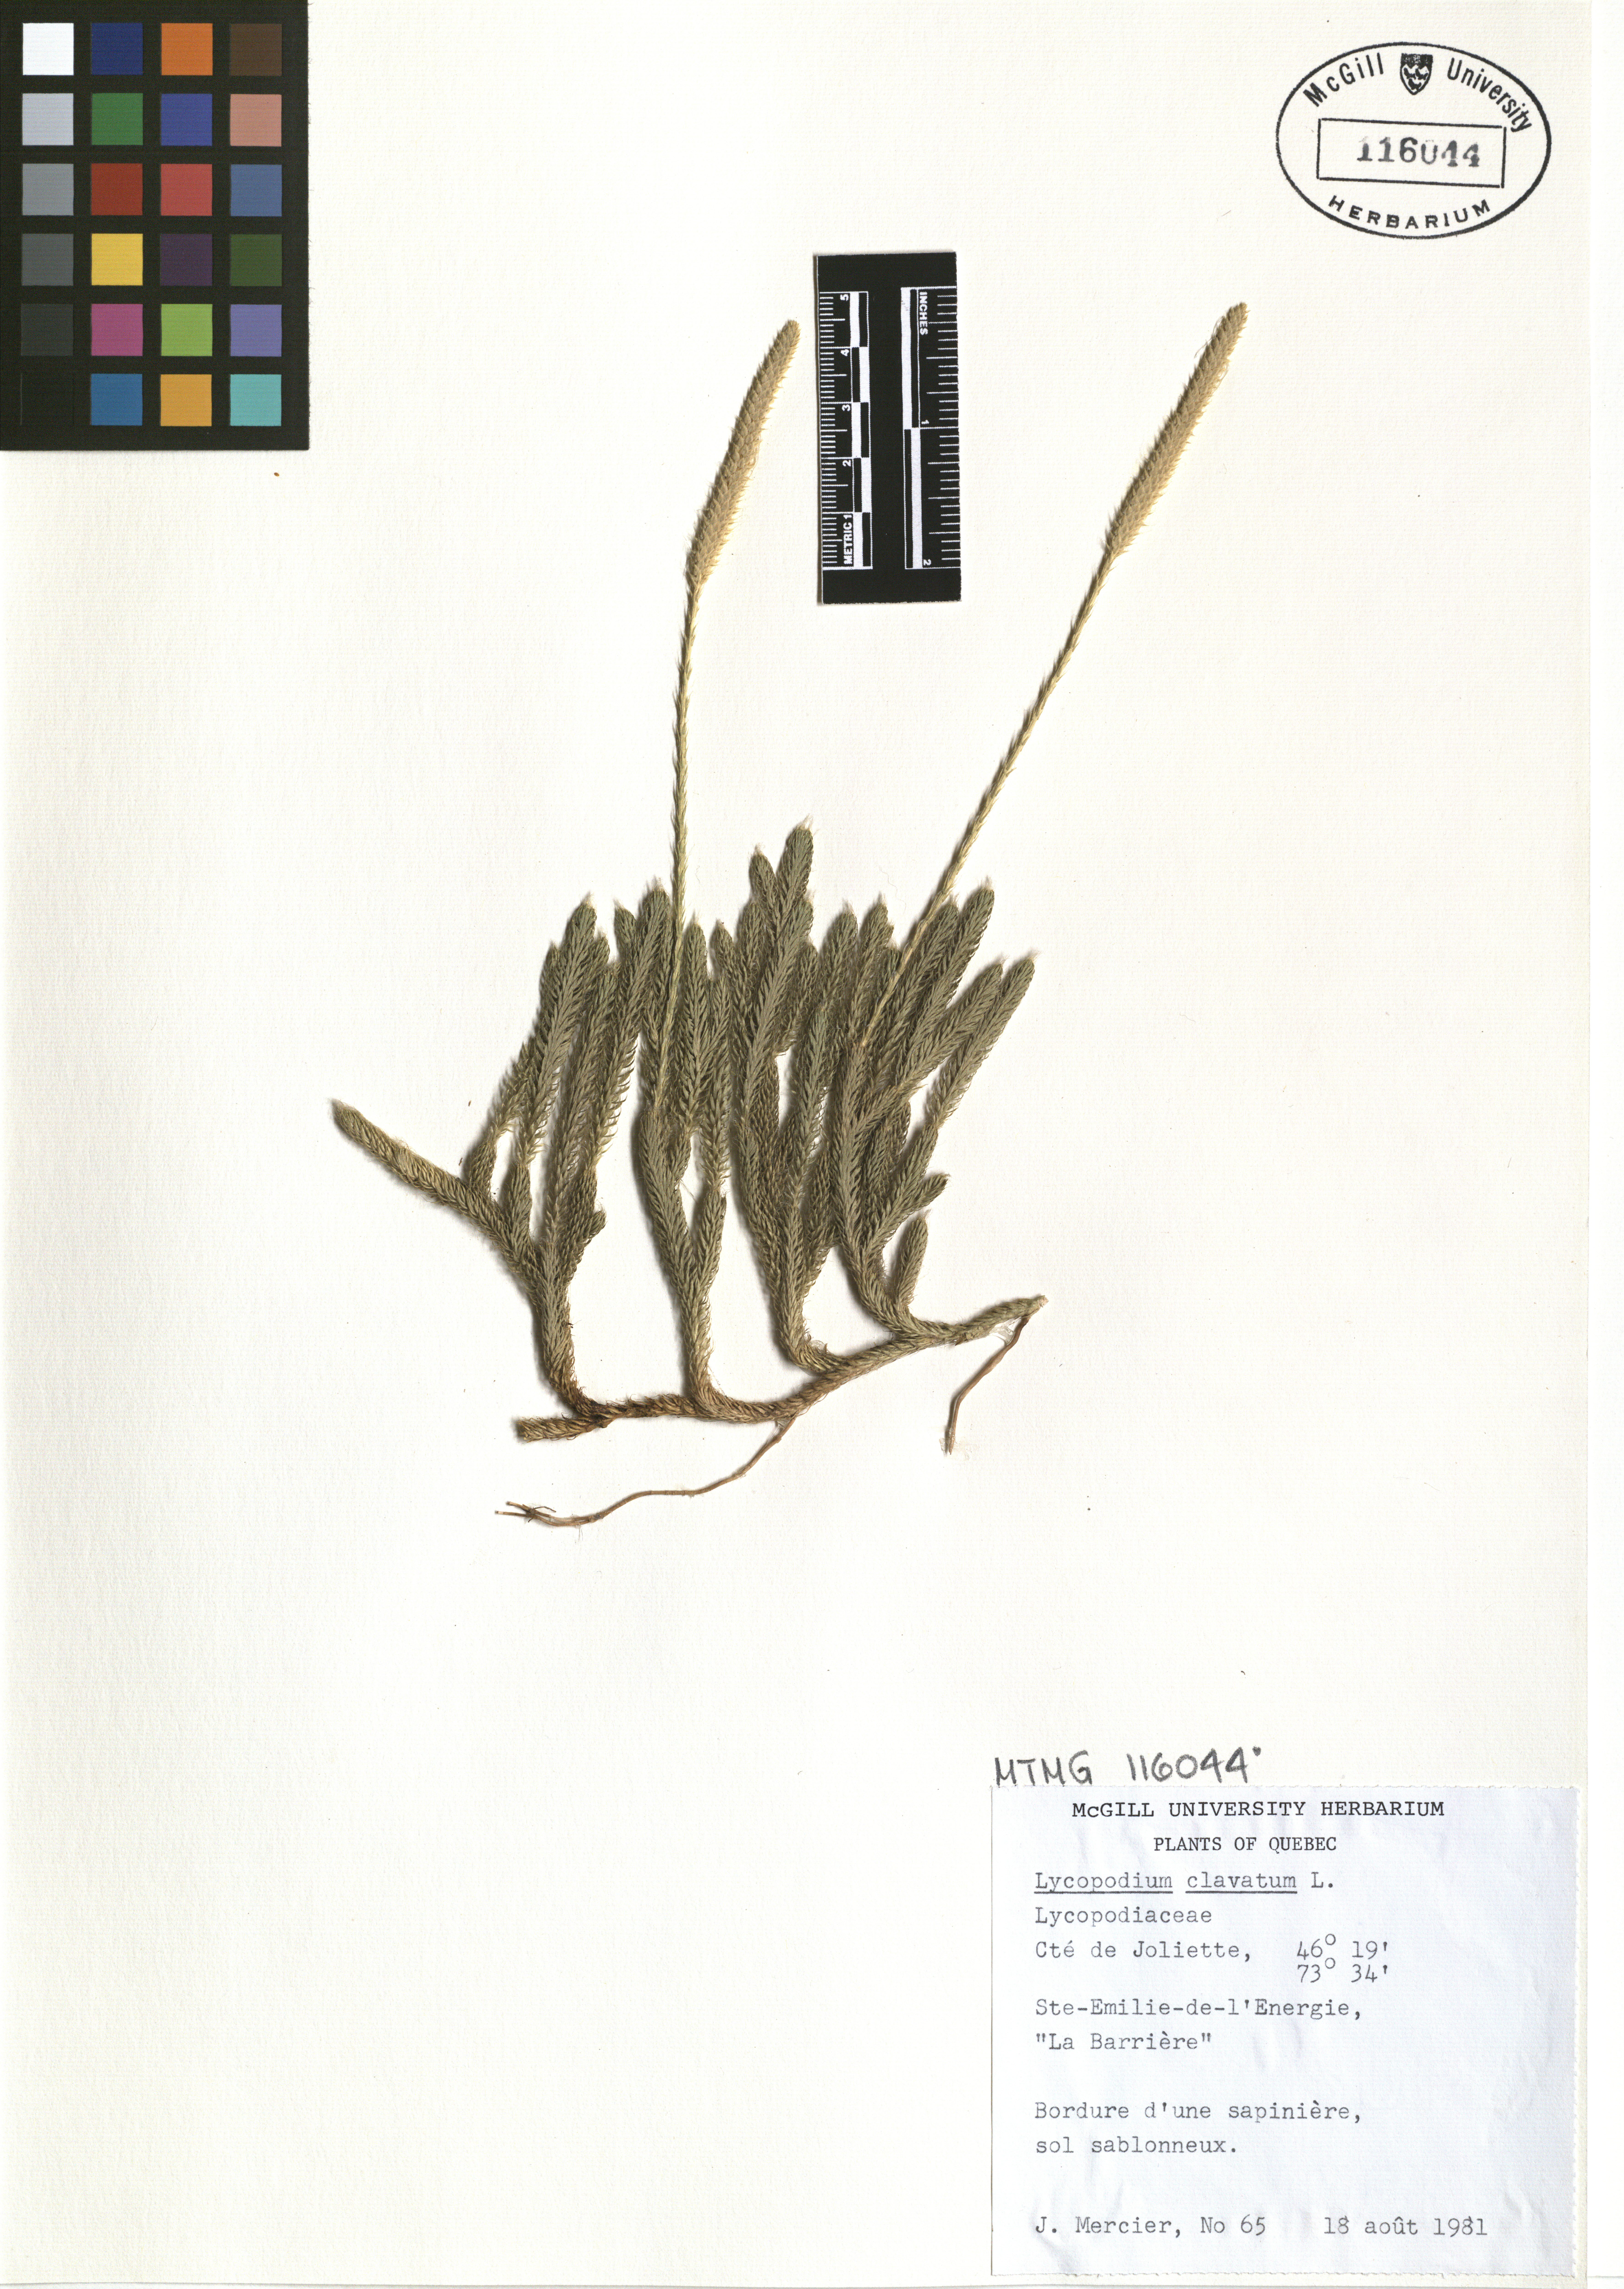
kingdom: Plantae
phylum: Tracheophyta
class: Lycopodiopsida
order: Lycopodiales
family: Lycopodiaceae
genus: Lycopodium
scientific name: Lycopodium clavatum
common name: Stag's-horn clubmoss
